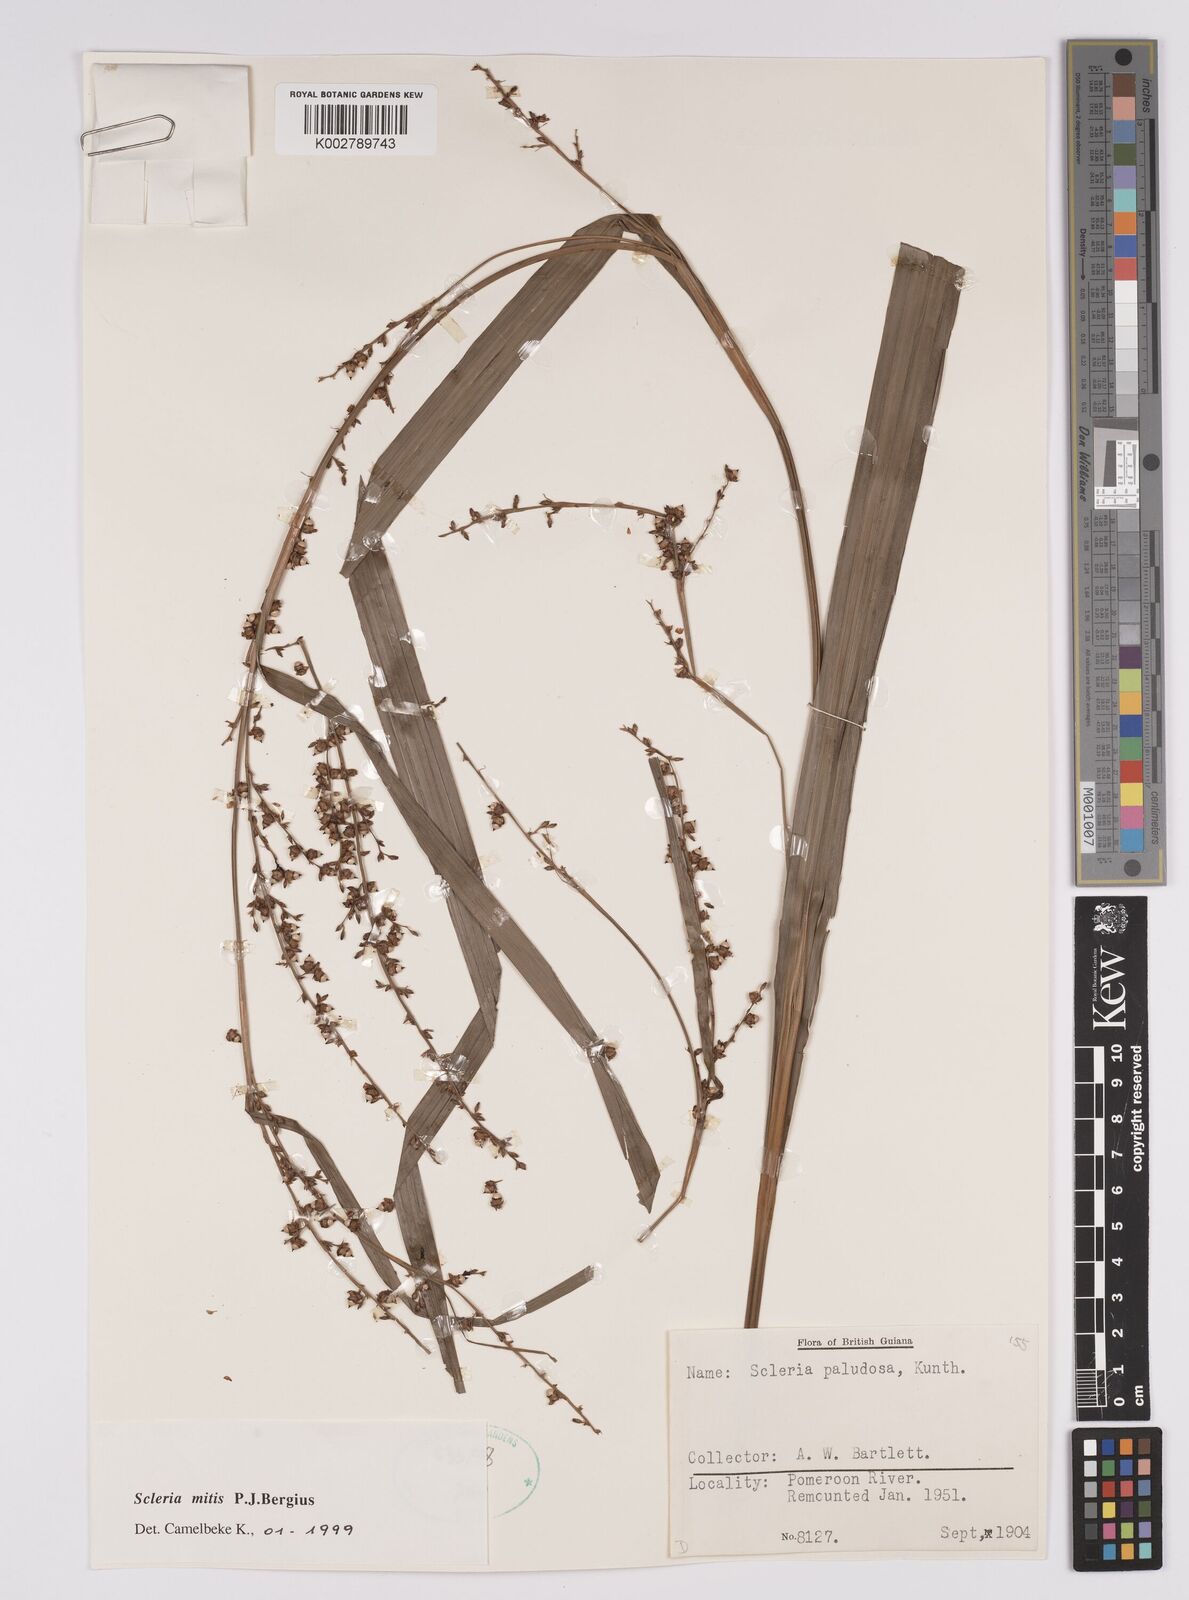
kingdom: Plantae
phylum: Tracheophyta
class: Liliopsida
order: Poales
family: Cyperaceae
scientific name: Cyperaceae
